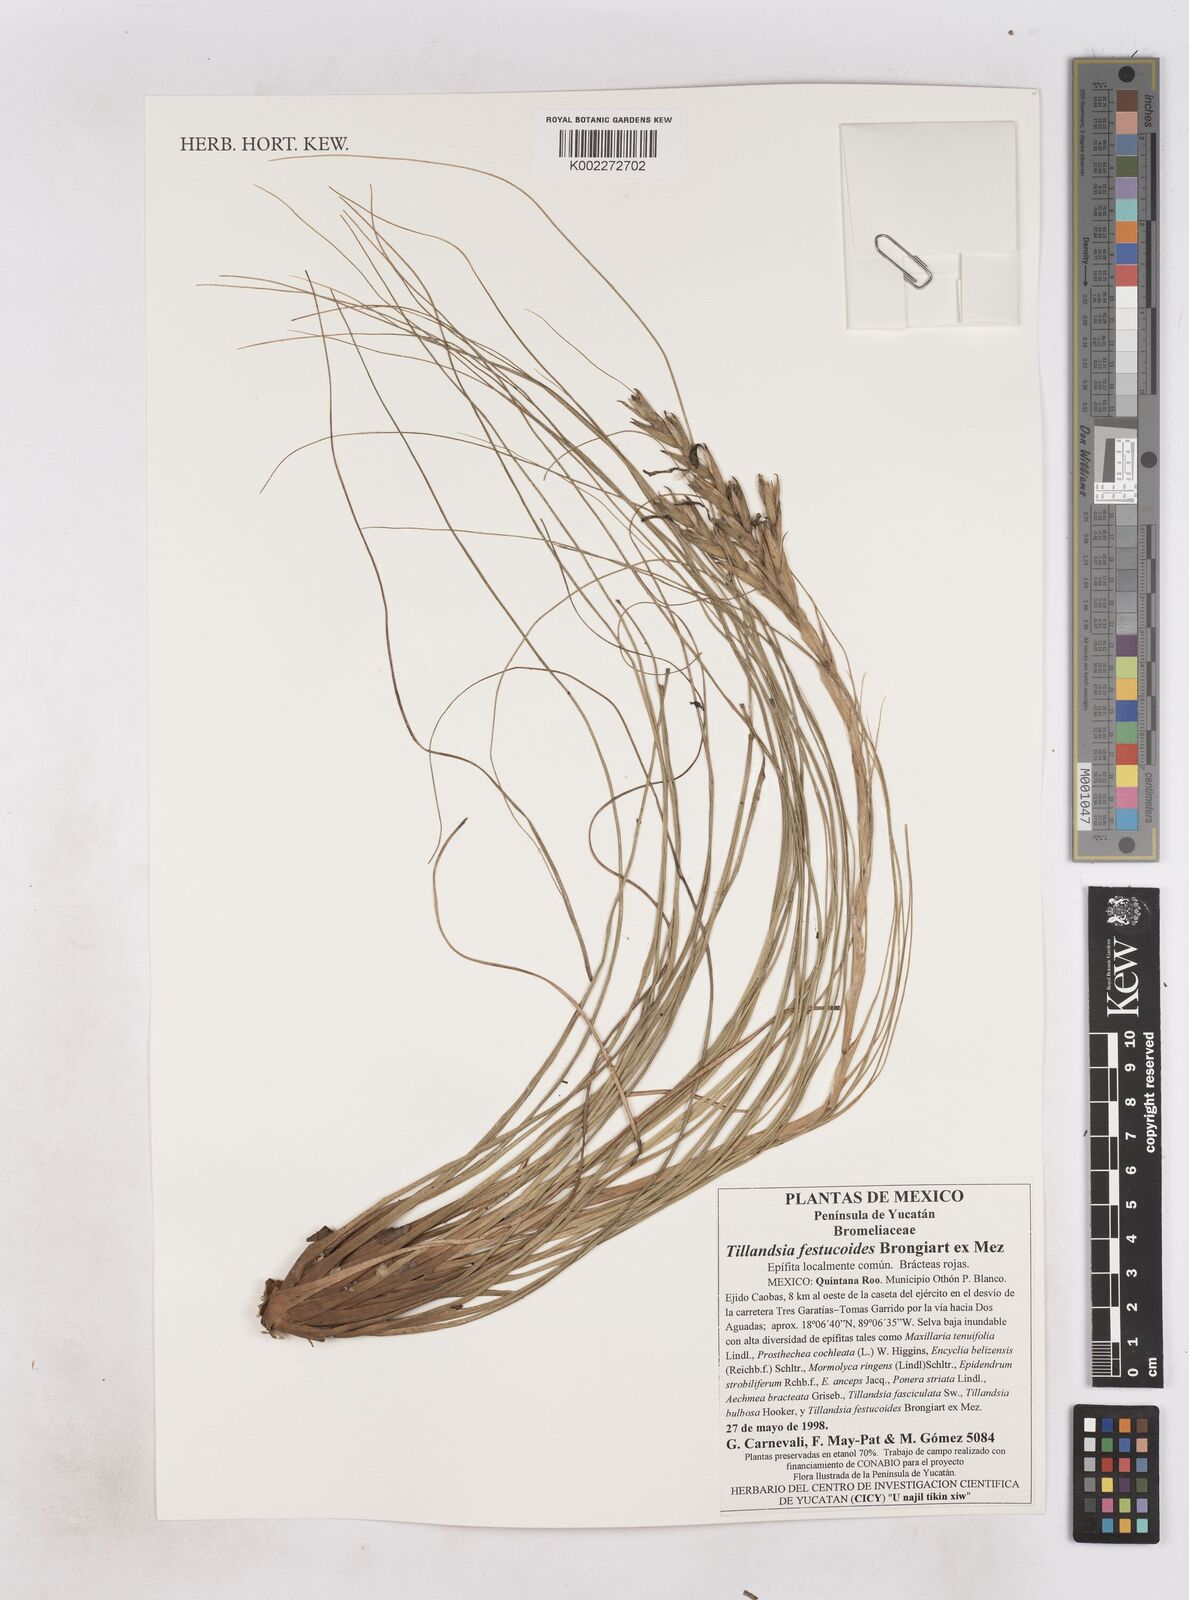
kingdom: Plantae
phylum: Tracheophyta
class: Liliopsida
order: Poales
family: Bromeliaceae
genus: Tillandsia
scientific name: Tillandsia festucoides
